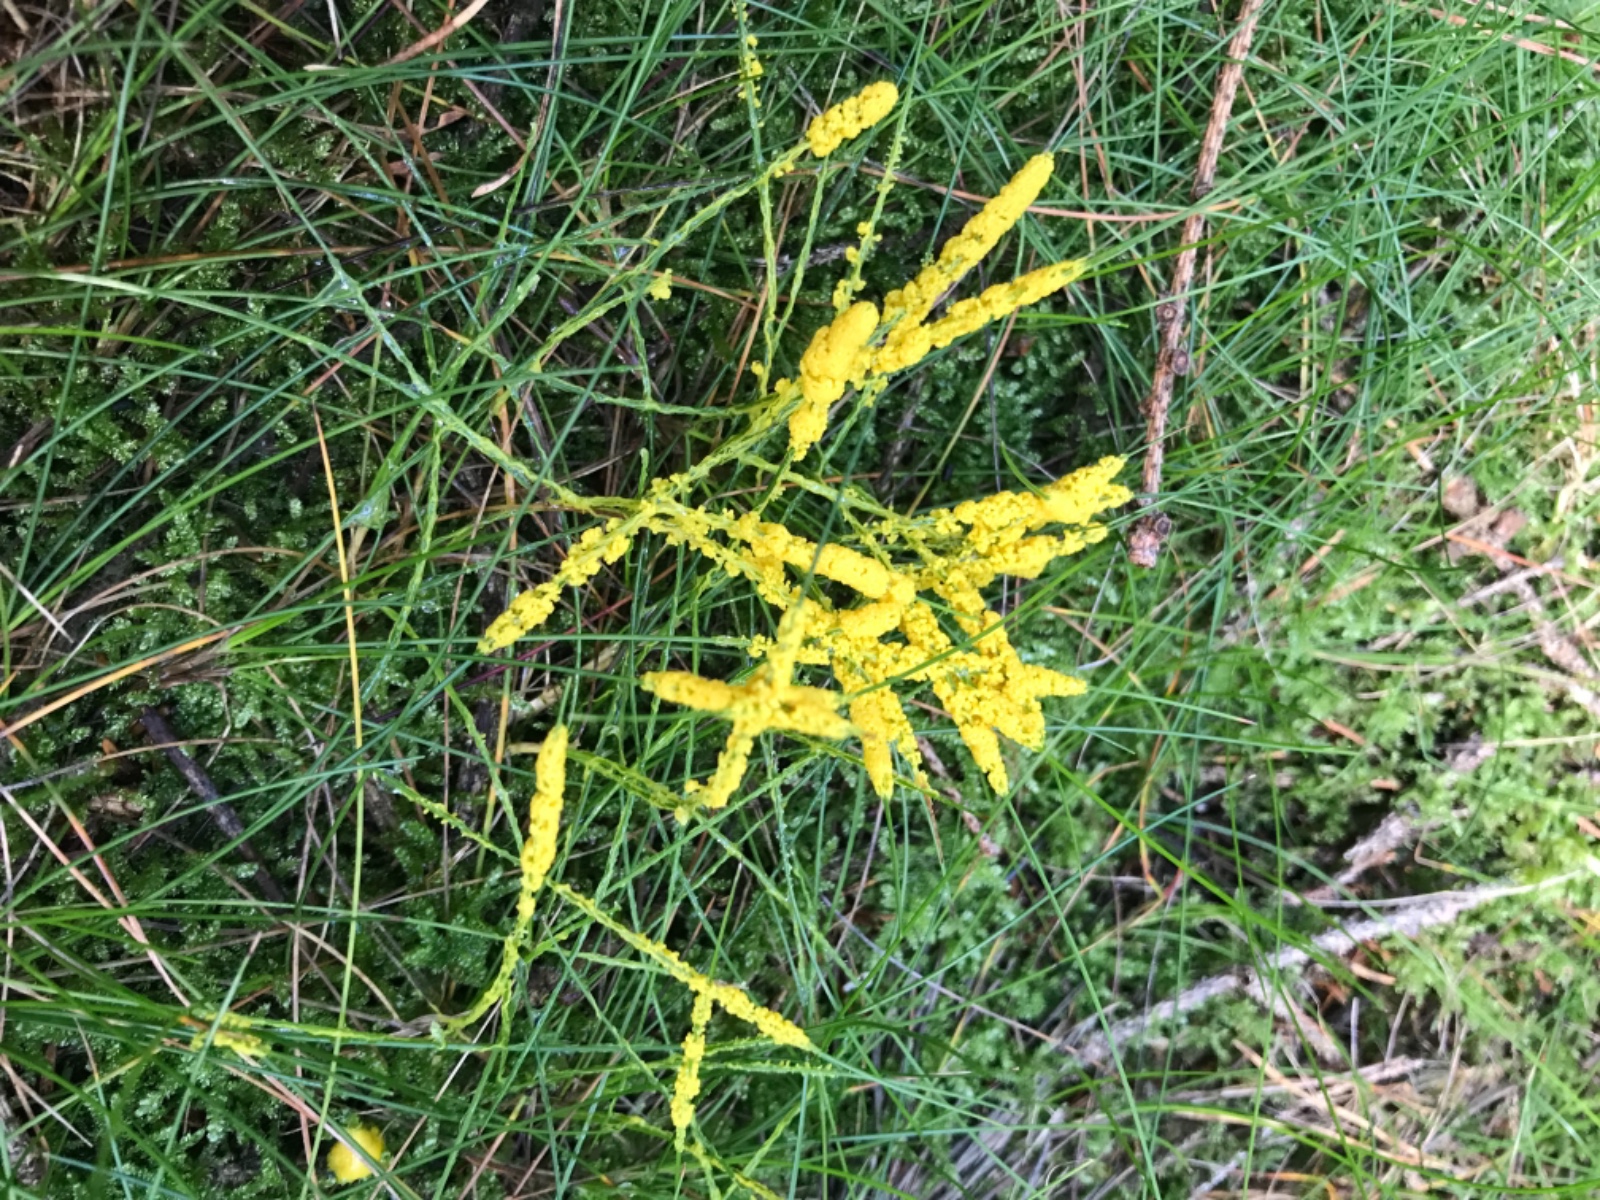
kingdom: Protozoa
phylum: Mycetozoa
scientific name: Mycetozoa
